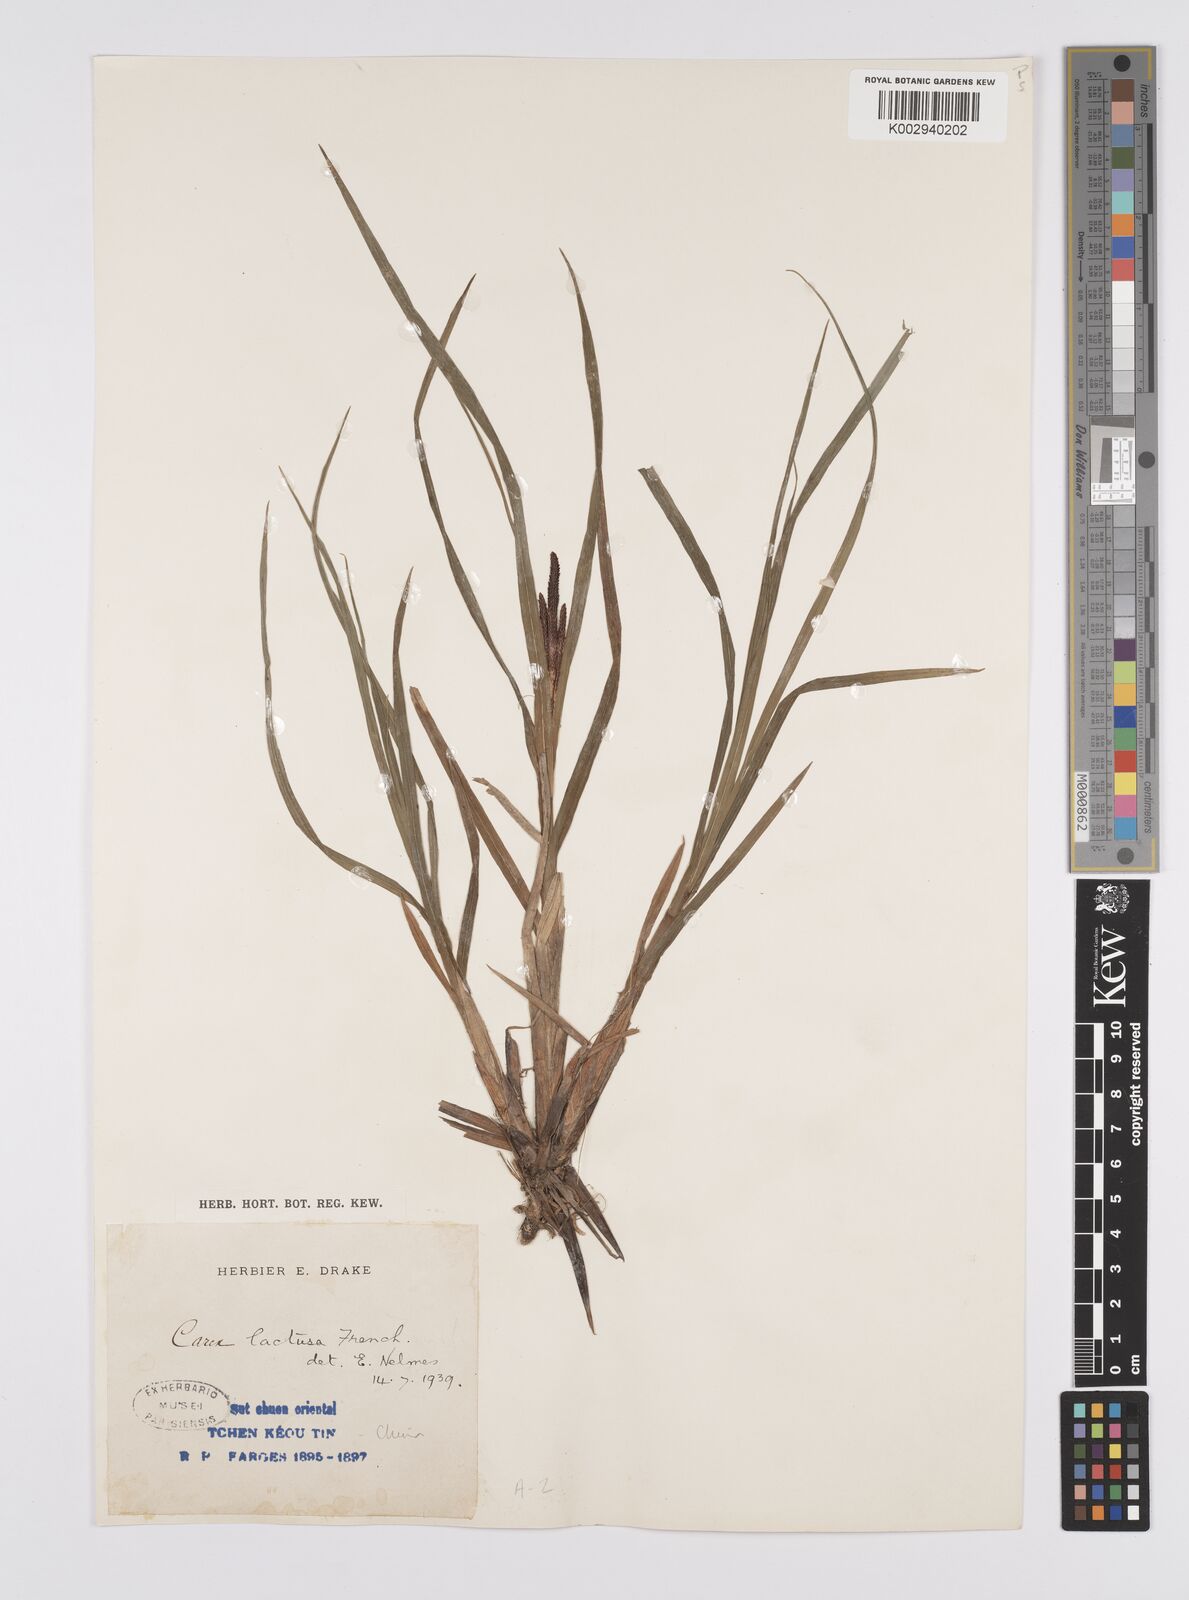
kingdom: Plantae
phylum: Tracheophyta
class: Liliopsida
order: Poales
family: Cyperaceae
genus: Carex
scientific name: Carex fucata
